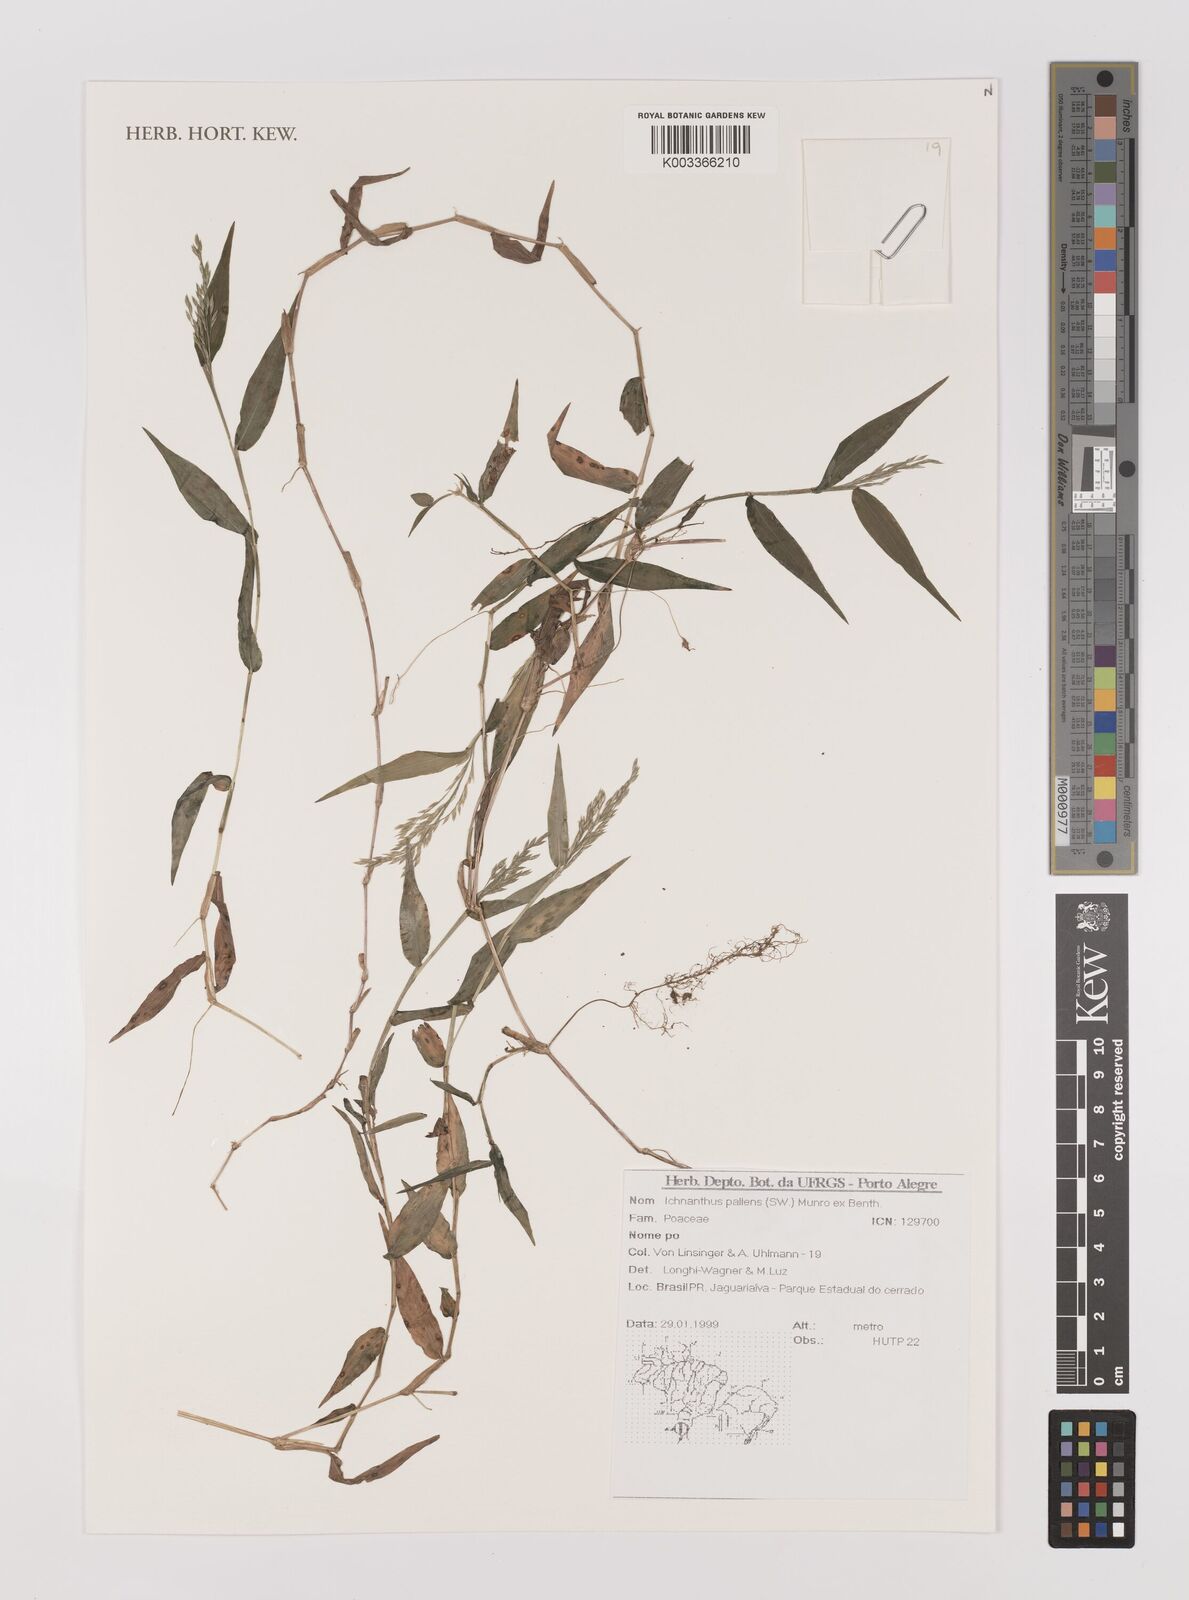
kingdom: Plantae
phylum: Tracheophyta
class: Liliopsida
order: Poales
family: Poaceae
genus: Ichnanthus
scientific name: Ichnanthus pallens
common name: Water grass
